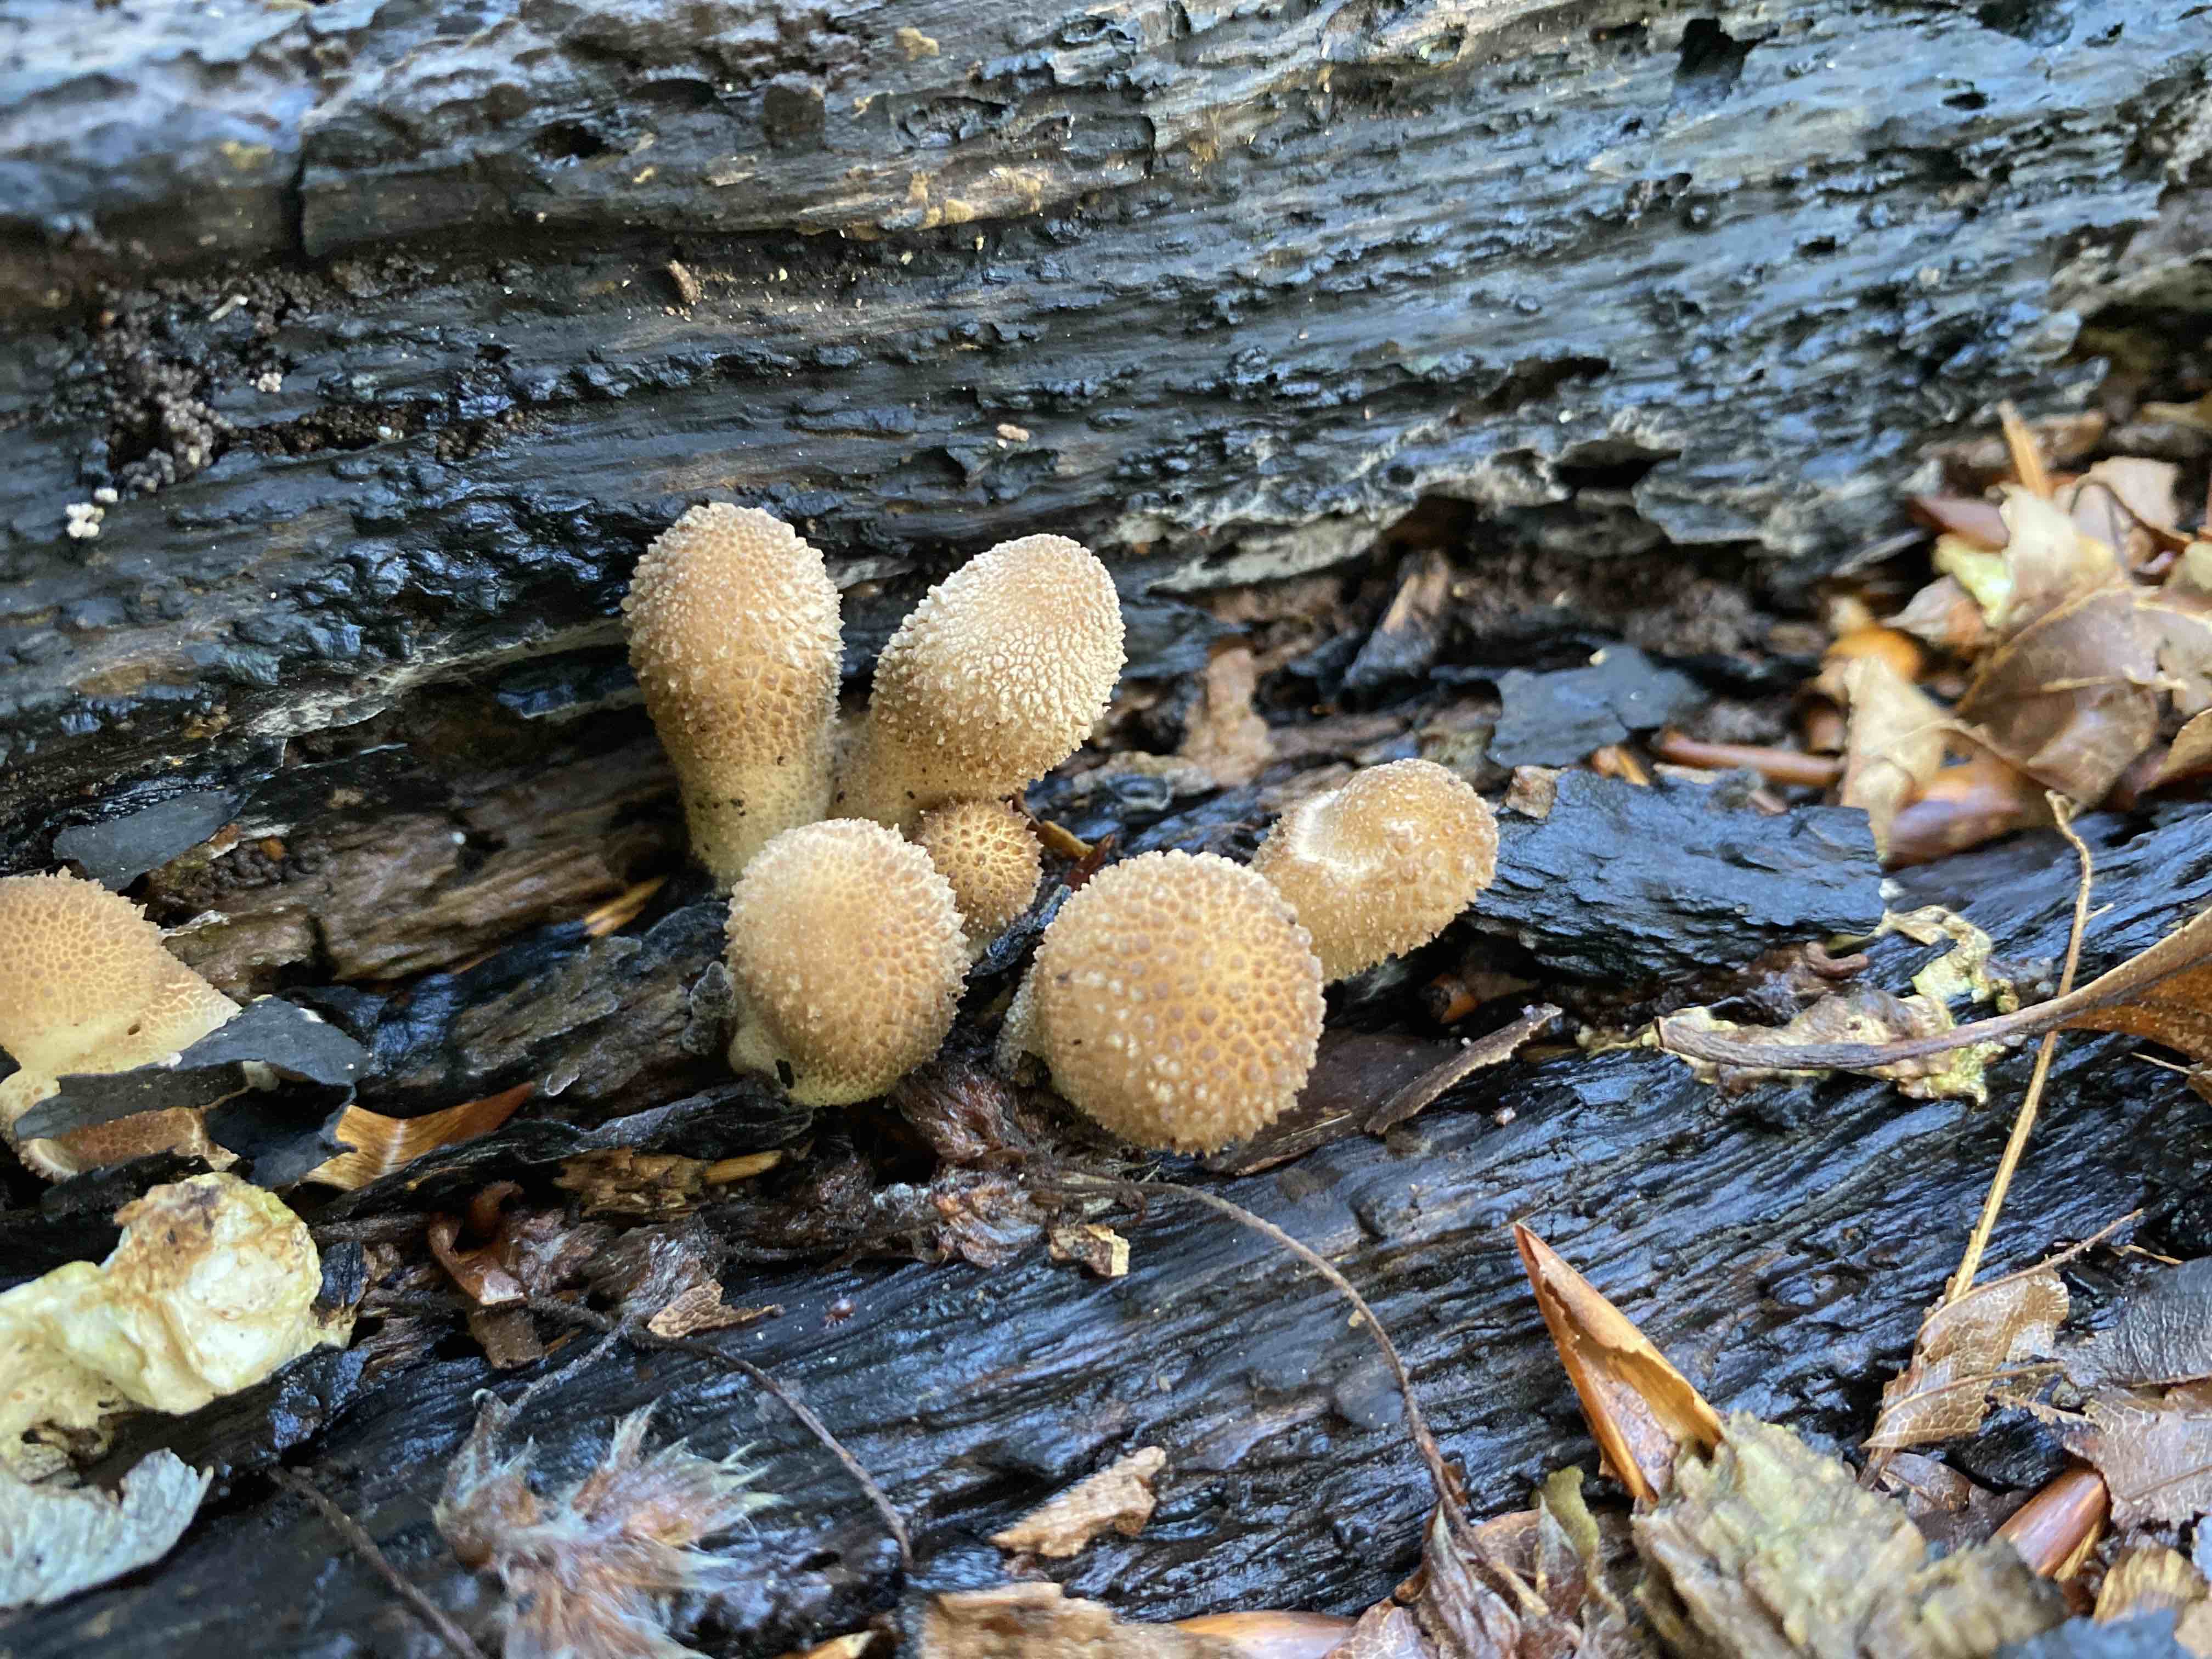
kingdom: Fungi
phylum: Basidiomycota
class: Agaricomycetes
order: Agaricales
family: Lycoperdaceae
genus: Apioperdon
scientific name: Apioperdon pyriforme
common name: pære-støvbold
